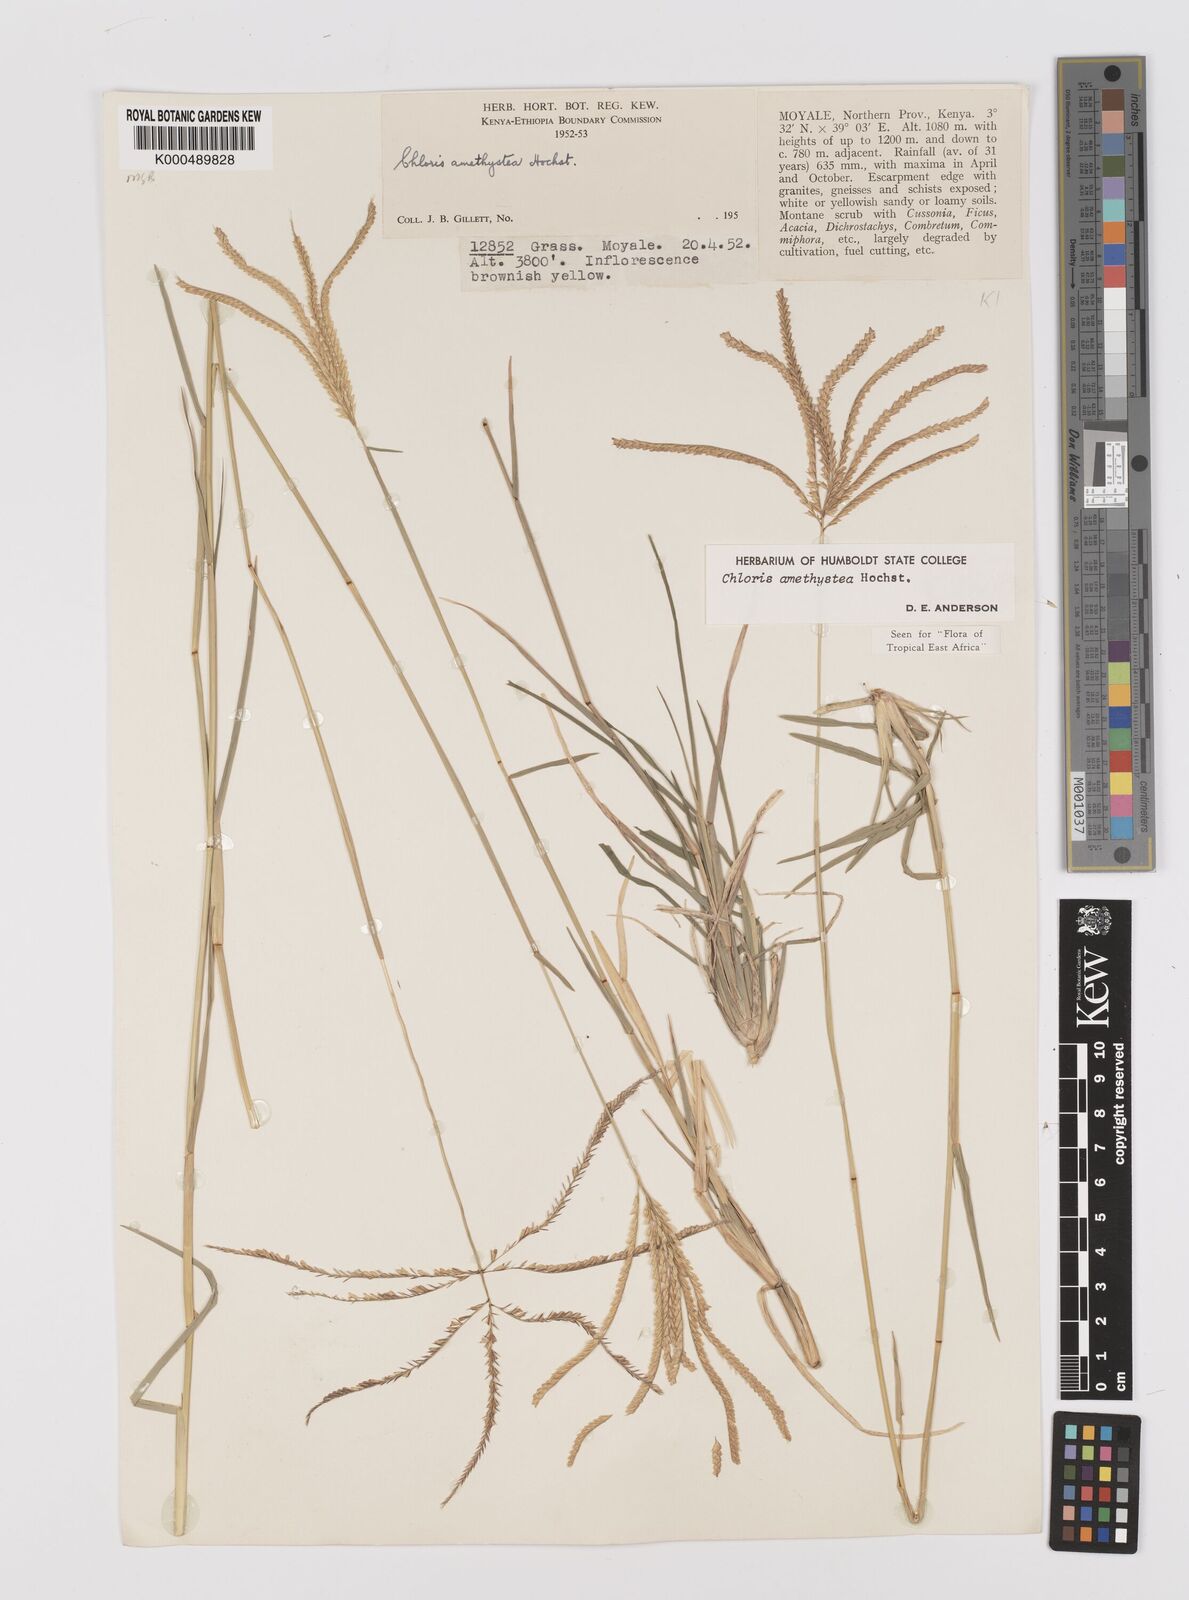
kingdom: Plantae
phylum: Tracheophyta
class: Liliopsida
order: Poales
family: Poaceae
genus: Chloris
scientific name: Chloris amethystea
